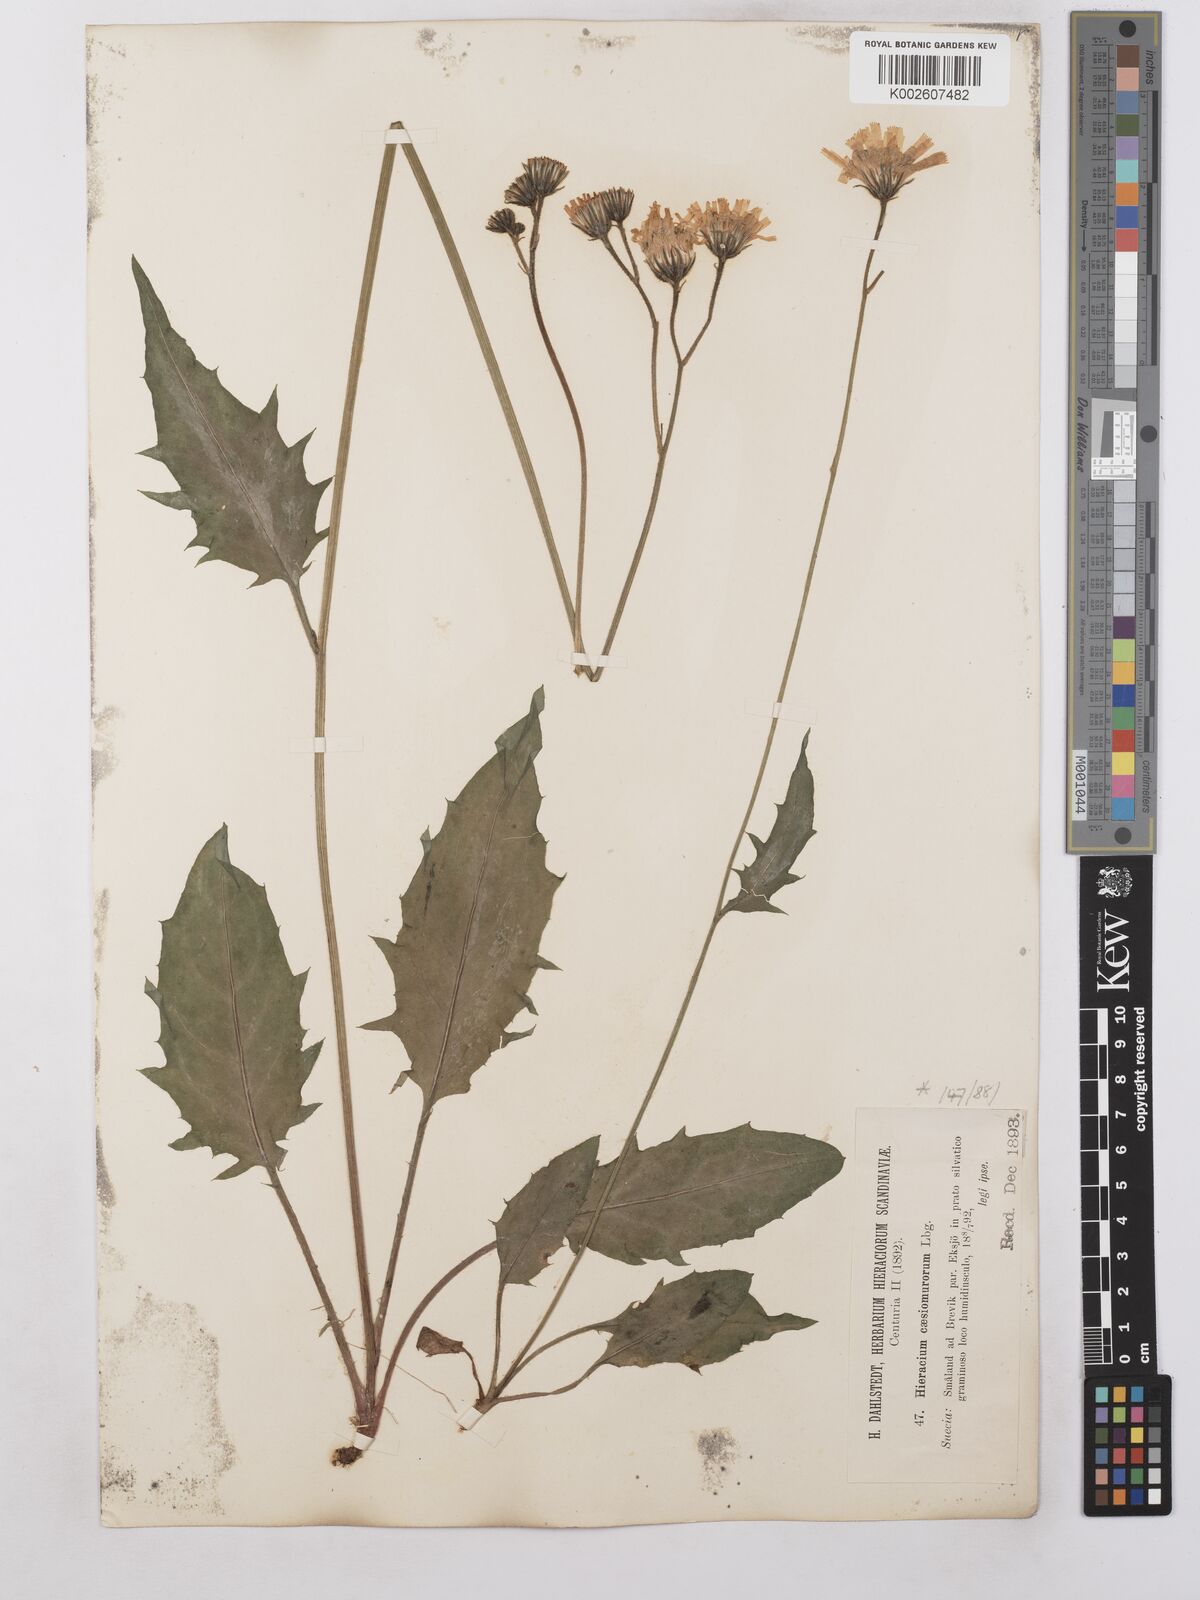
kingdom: Plantae
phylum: Tracheophyta
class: Magnoliopsida
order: Asterales
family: Asteraceae
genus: Hieracium
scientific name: Hieracium caesium
